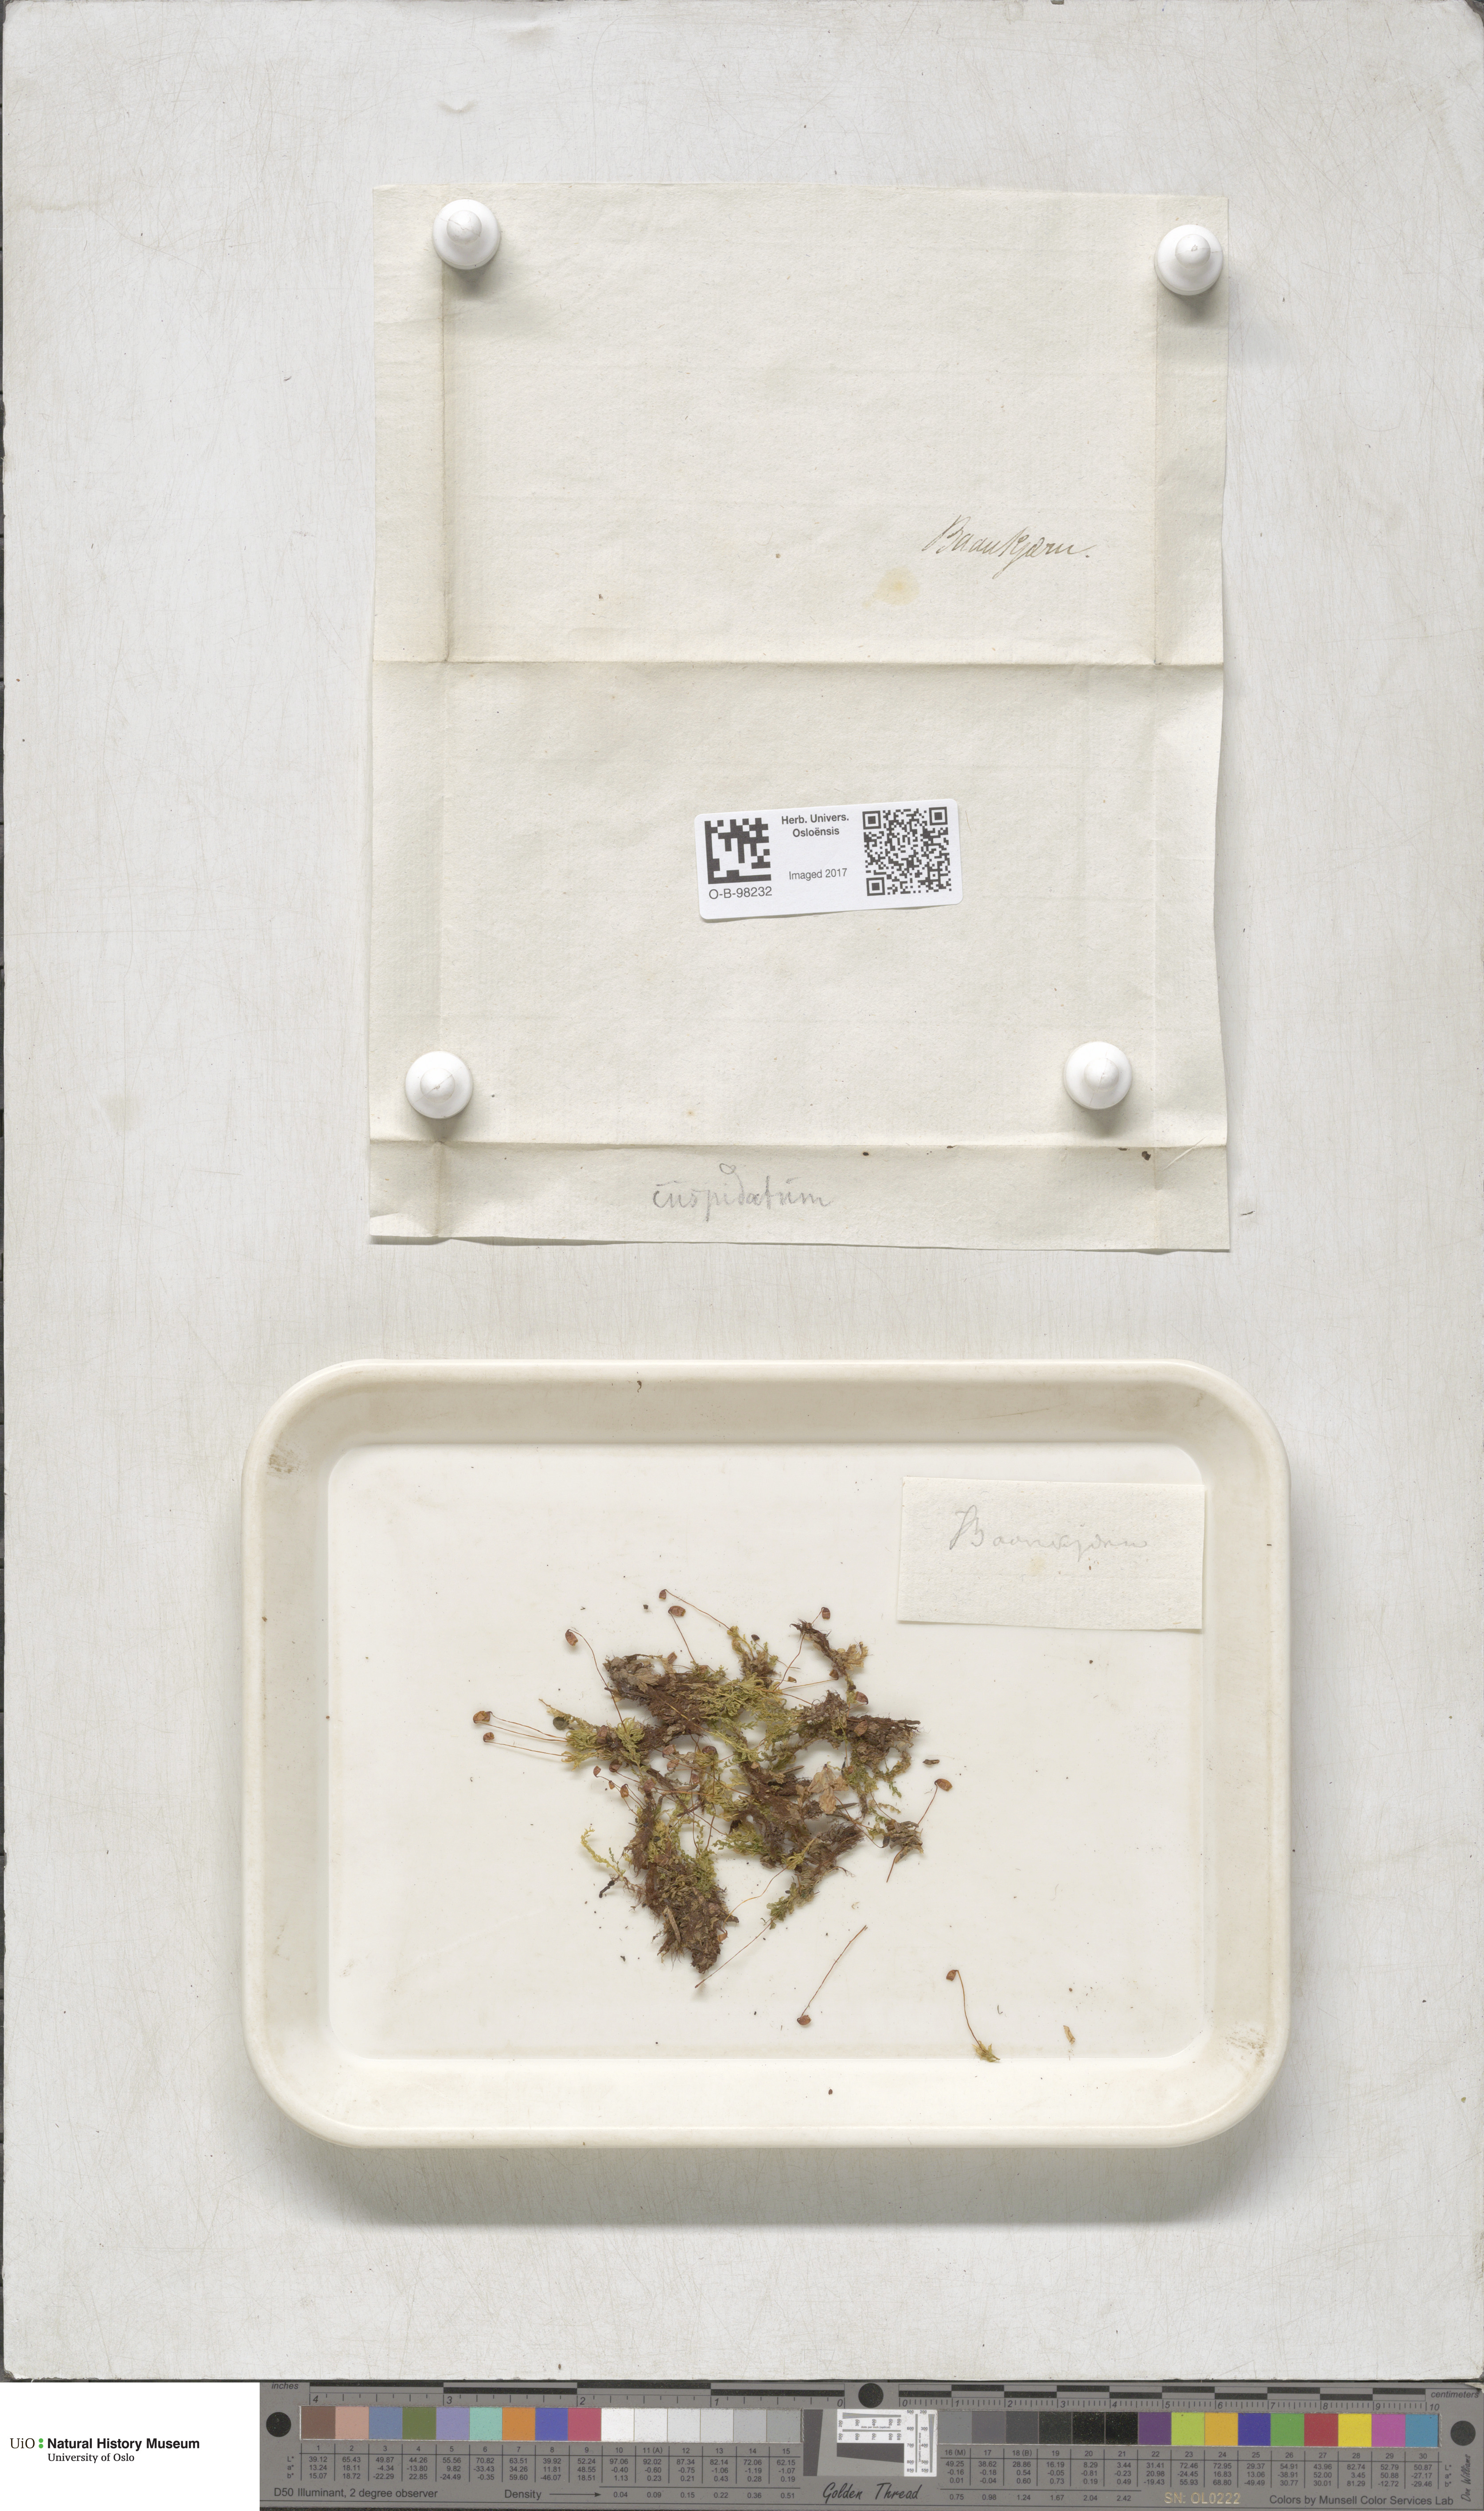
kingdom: Plantae
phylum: Bryophyta
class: Bryopsida
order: Bryales
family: Mniaceae
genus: Plagiomnium
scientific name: Plagiomnium cuspidatum
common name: Woodsy leafy moss
